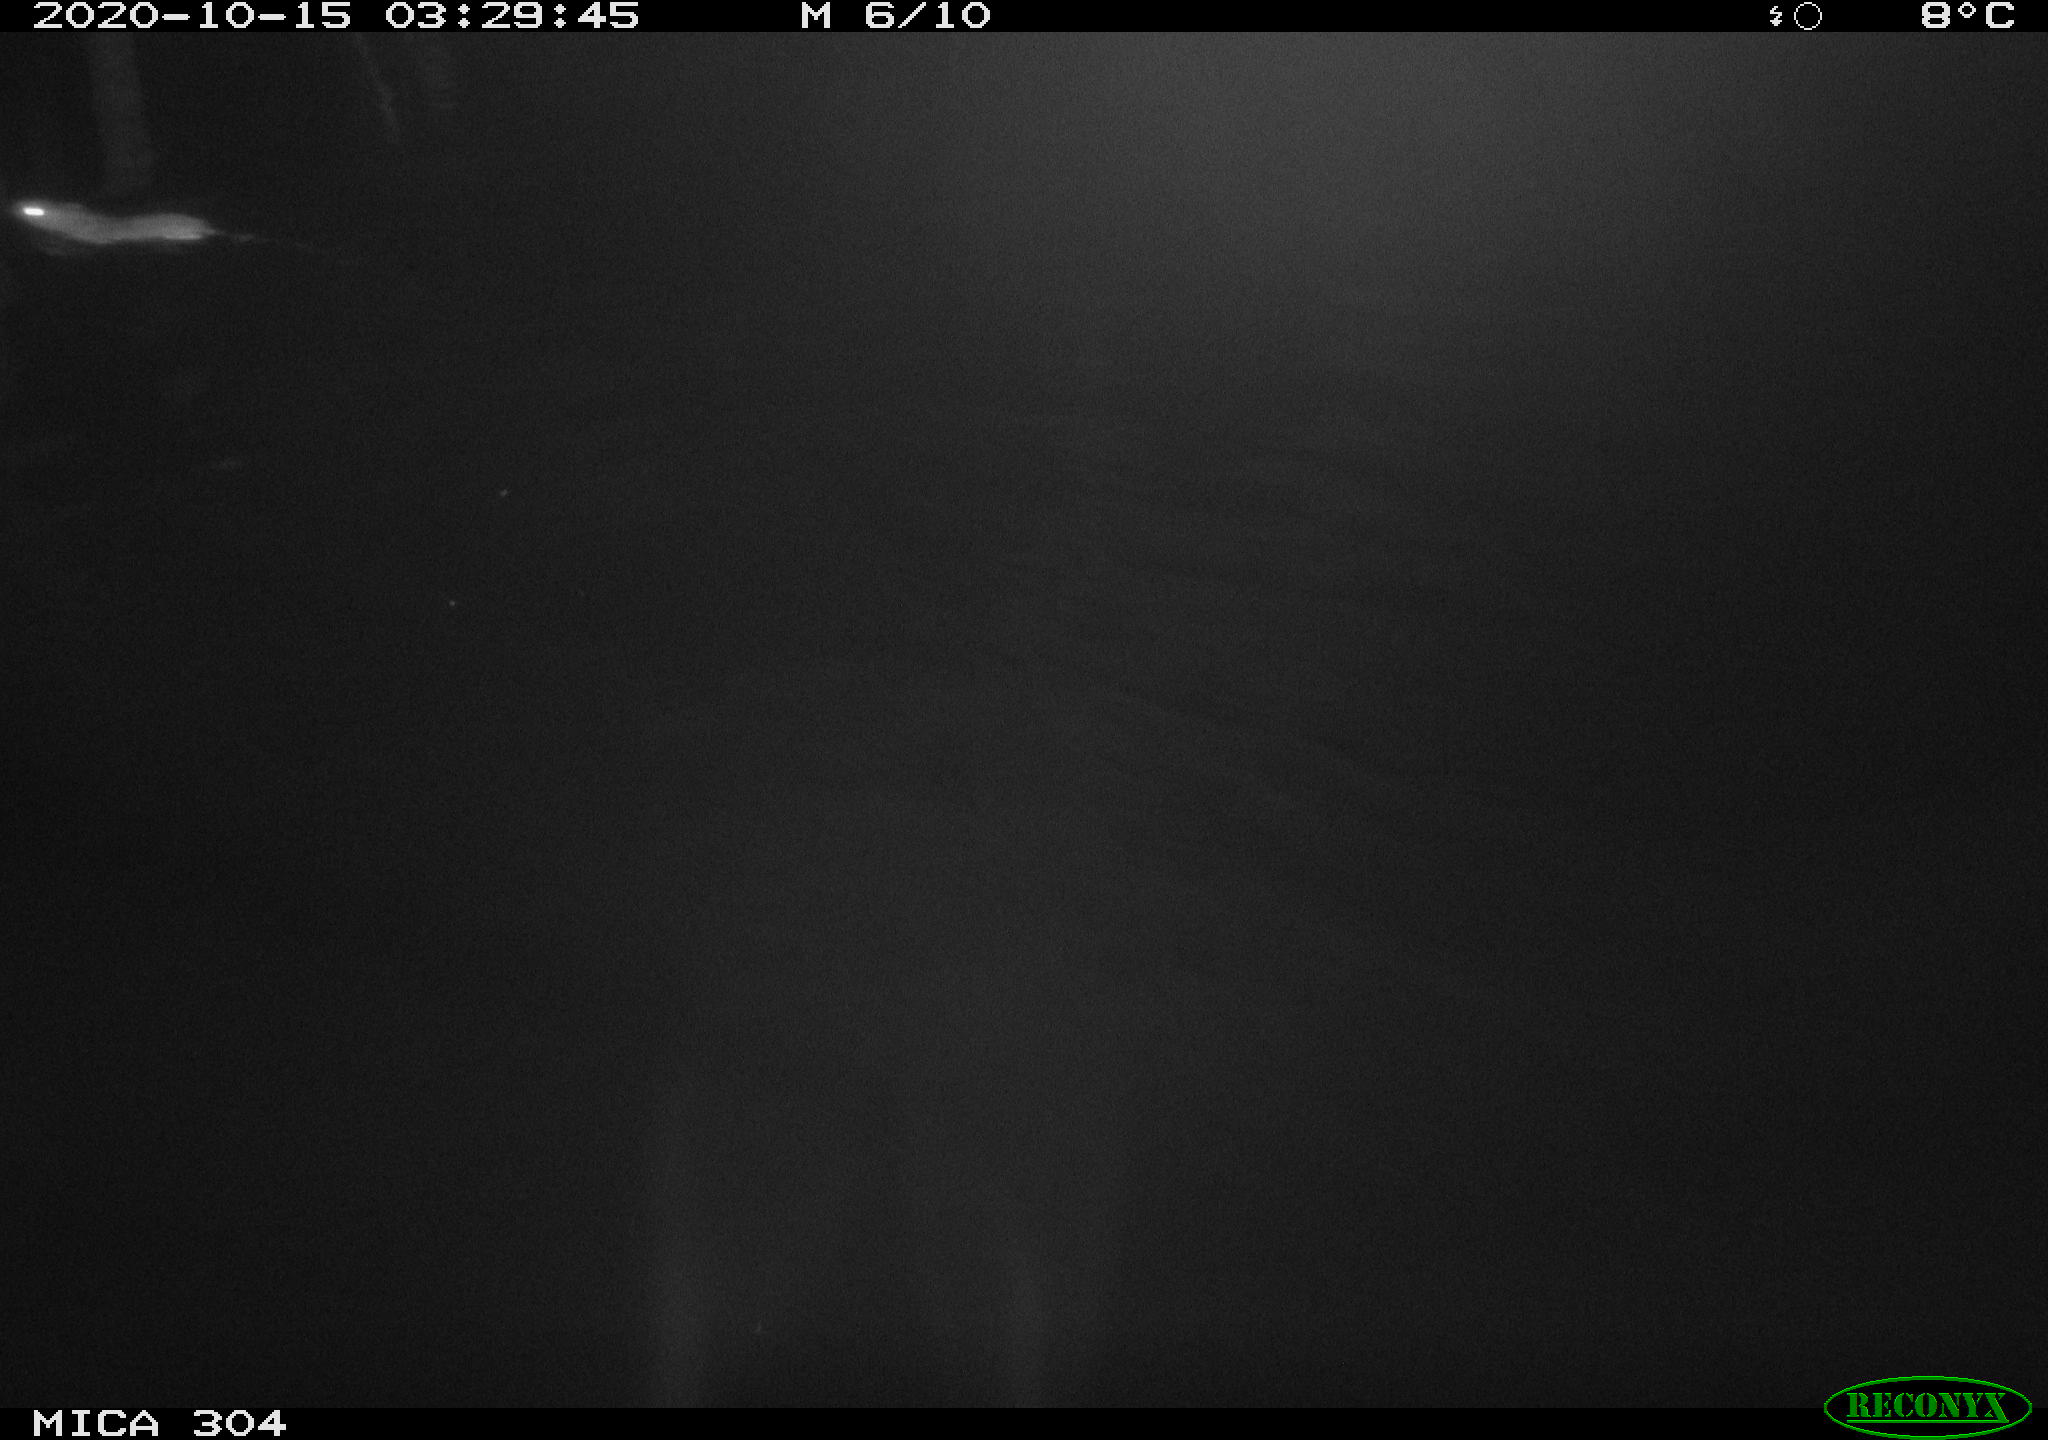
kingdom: Animalia
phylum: Chordata
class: Mammalia
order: Rodentia
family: Muridae
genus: Rattus
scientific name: Rattus norvegicus
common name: Brown rat
